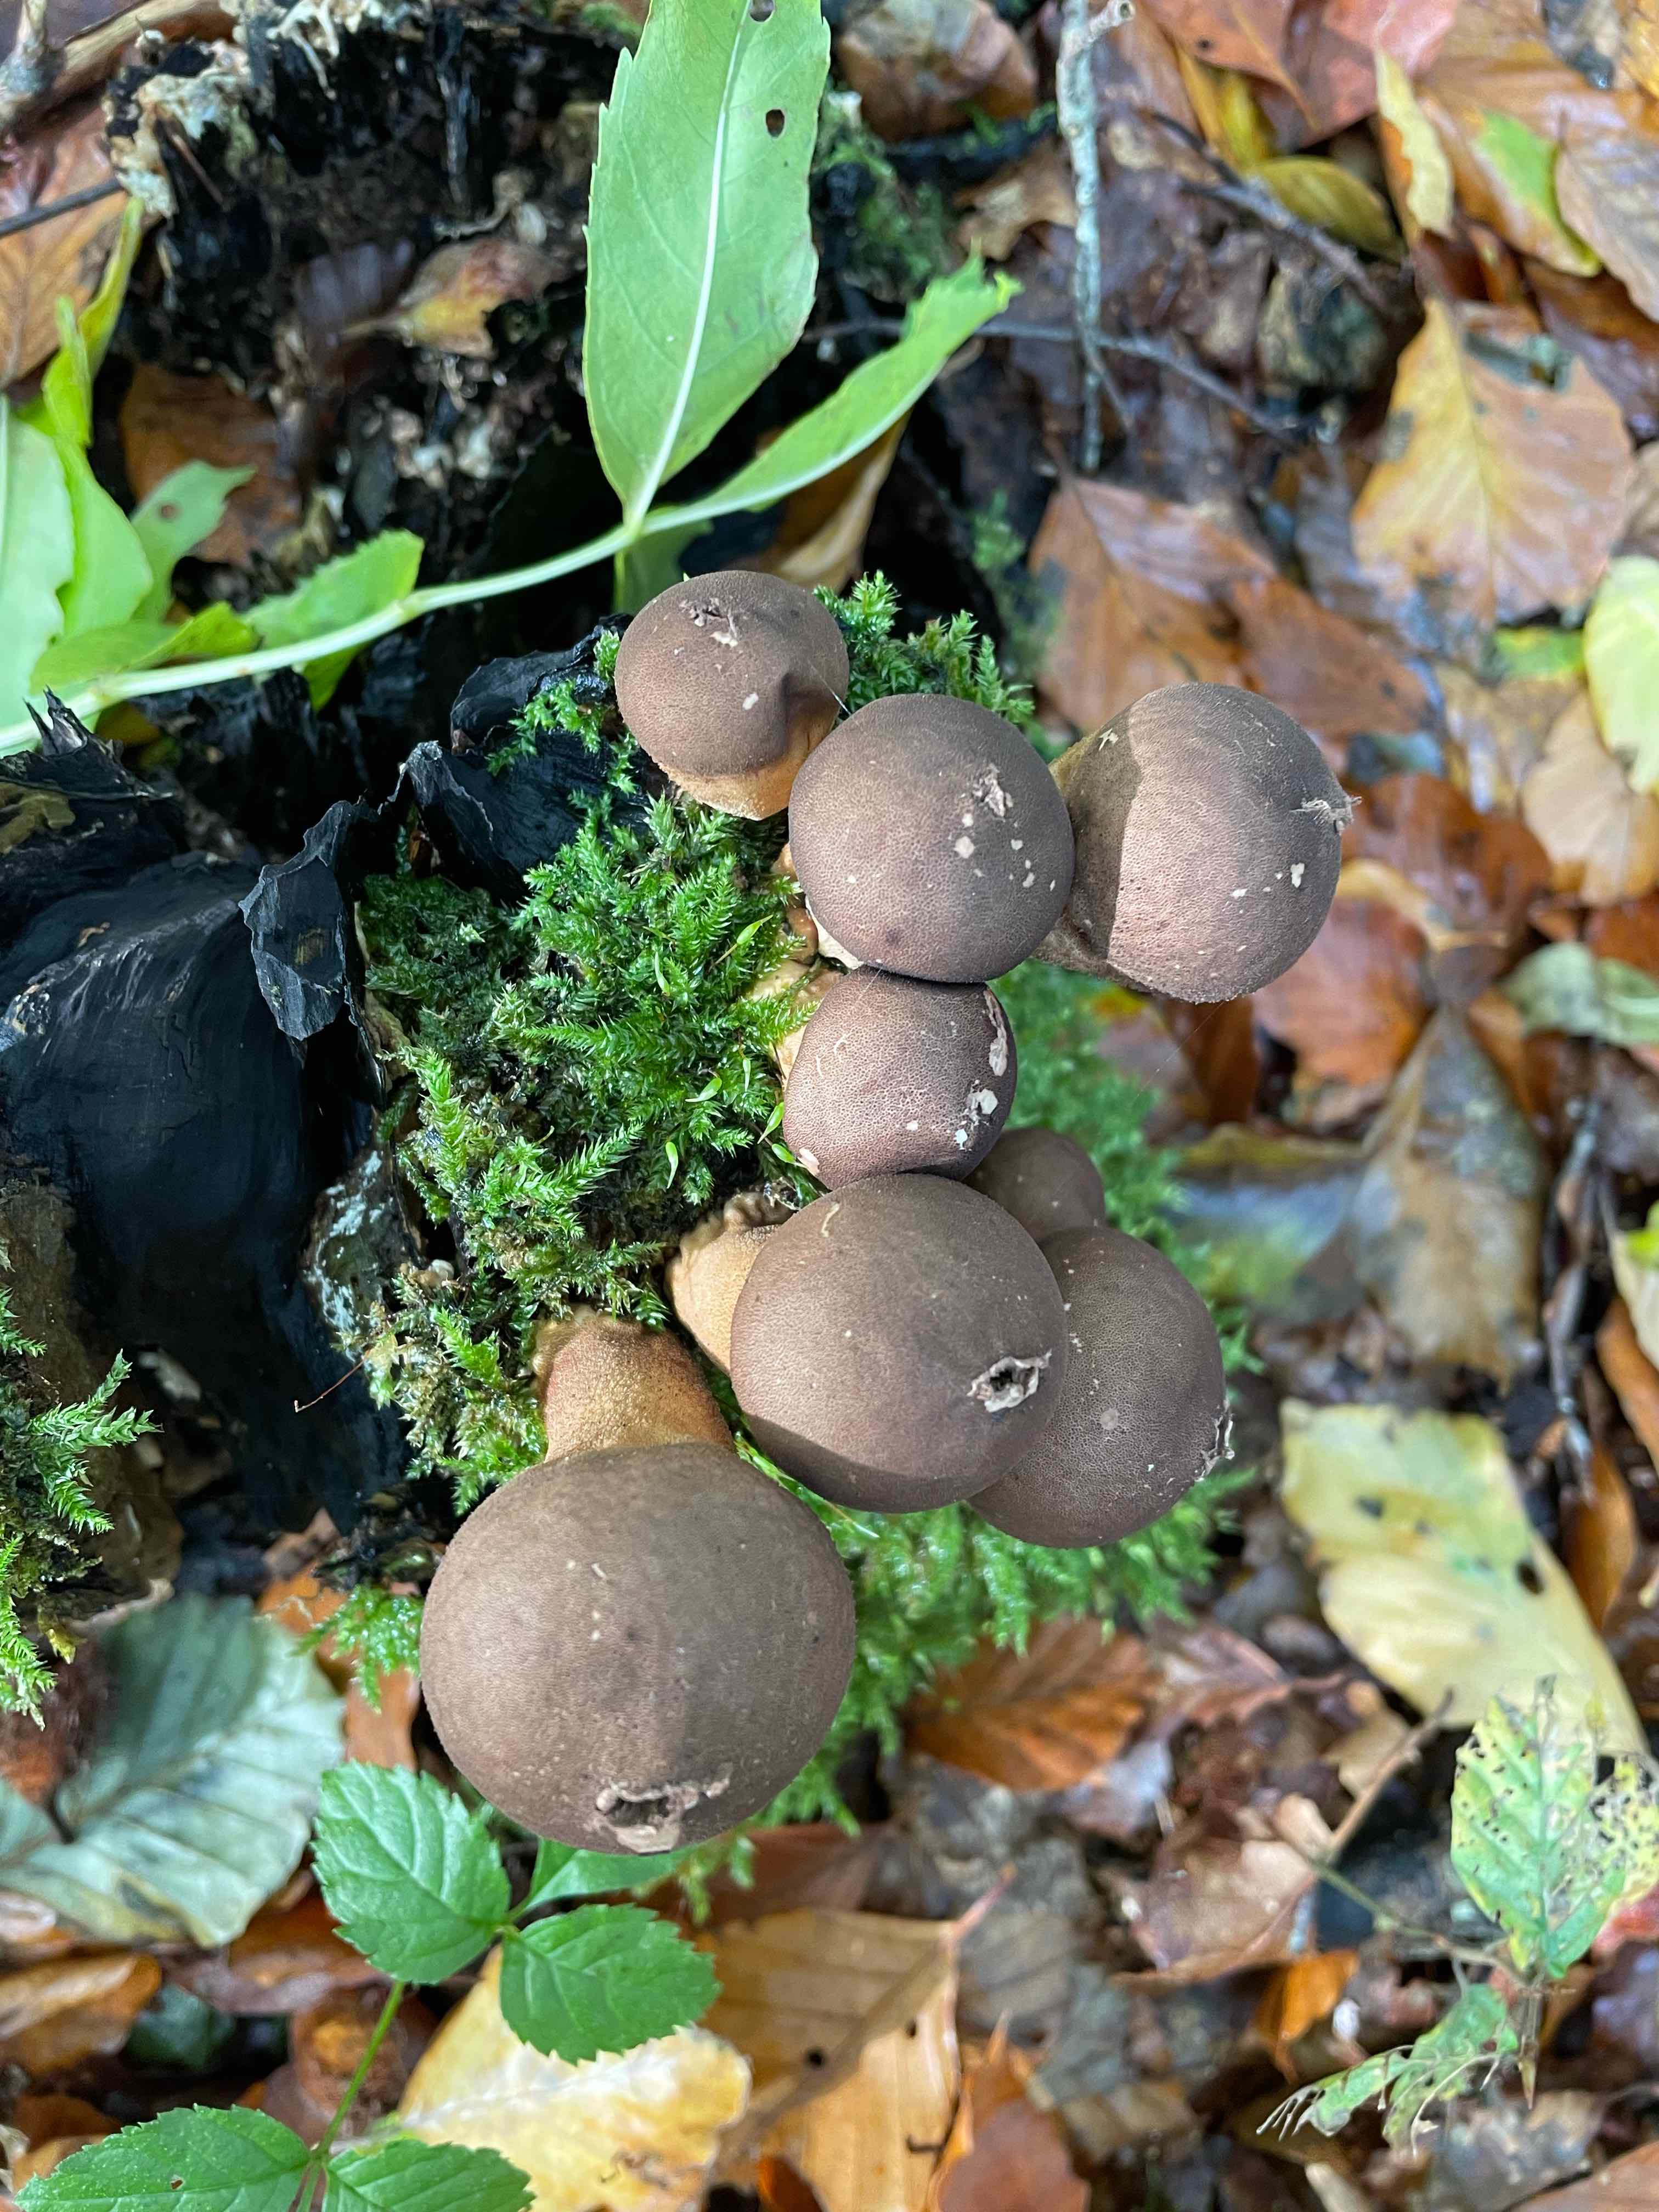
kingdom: Fungi
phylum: Basidiomycota
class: Agaricomycetes
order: Agaricales
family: Lycoperdaceae
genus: Apioperdon
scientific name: Apioperdon pyriforme
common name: pære-støvbold
